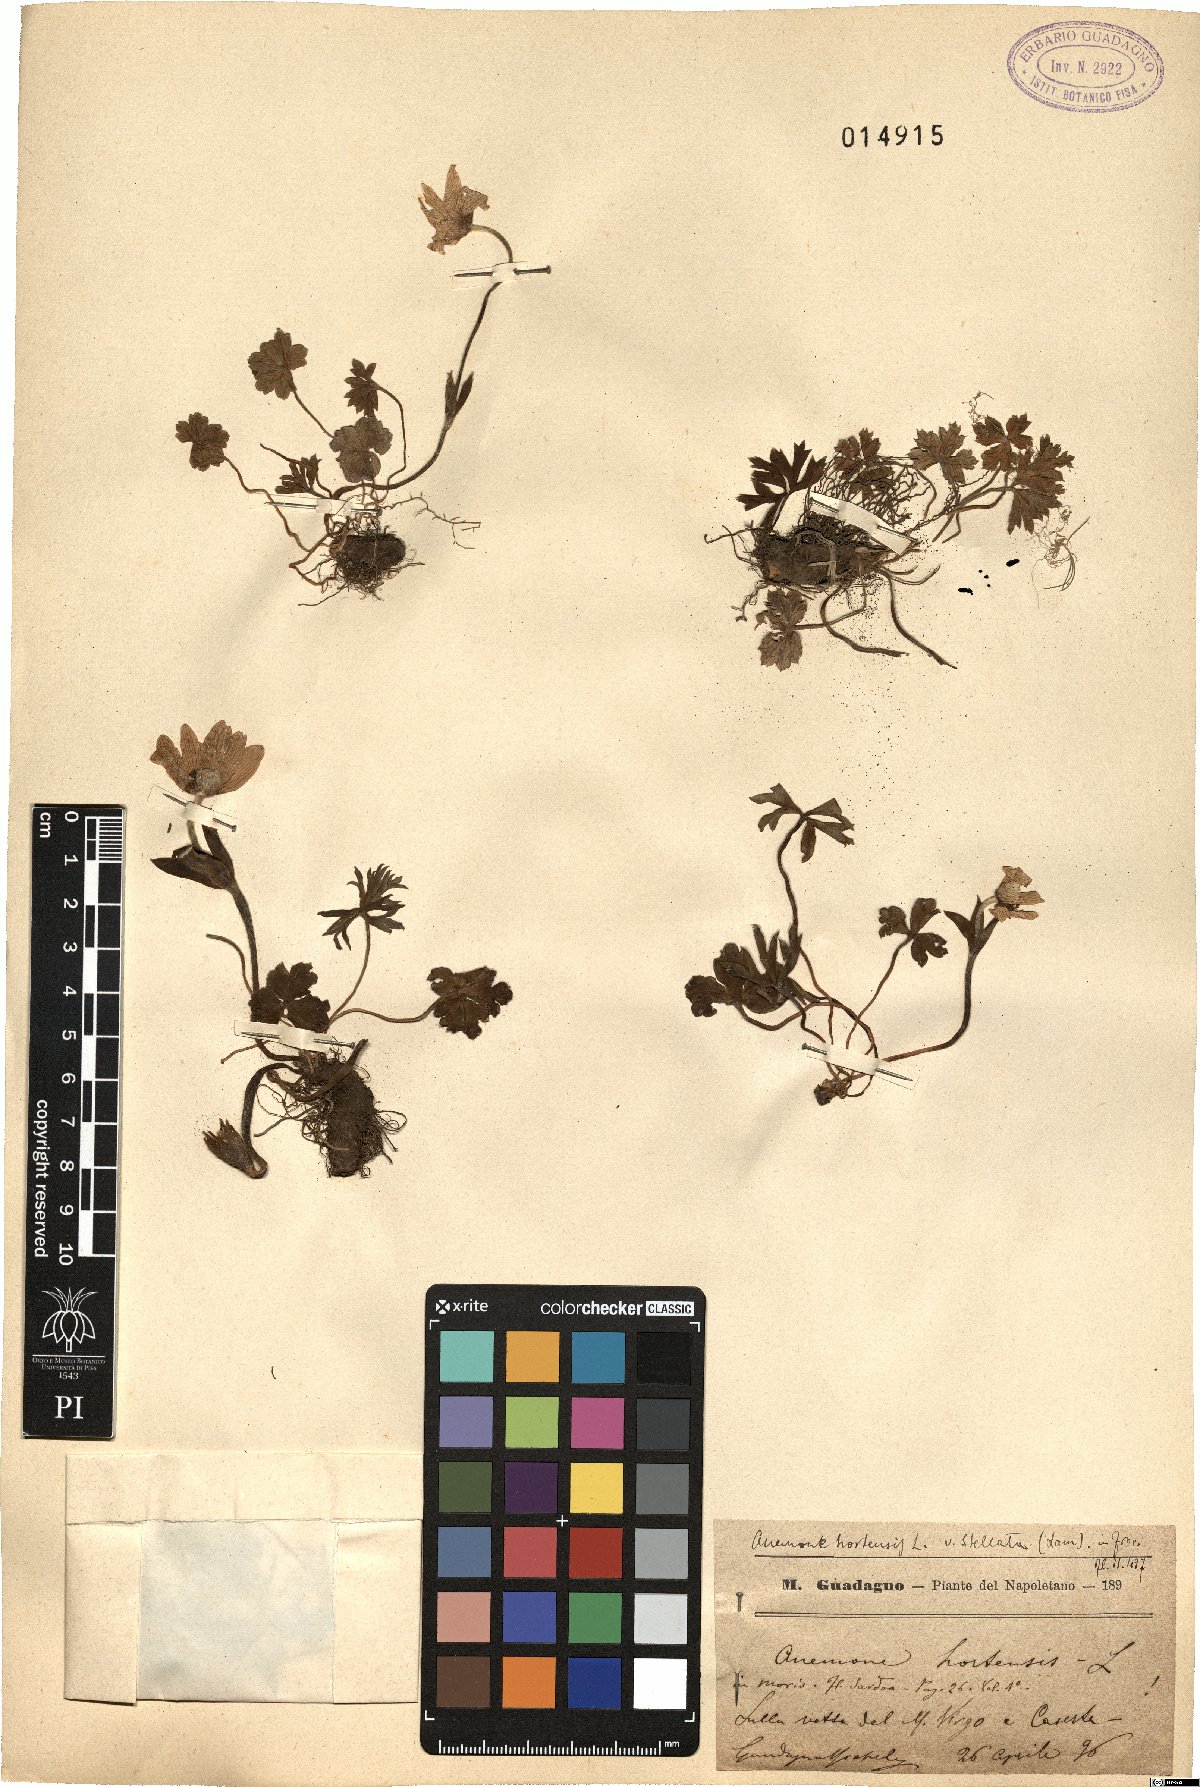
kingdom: Plantae
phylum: Tracheophyta
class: Magnoliopsida
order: Ranunculales
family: Ranunculaceae
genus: Anemone
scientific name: Anemone hortensis
